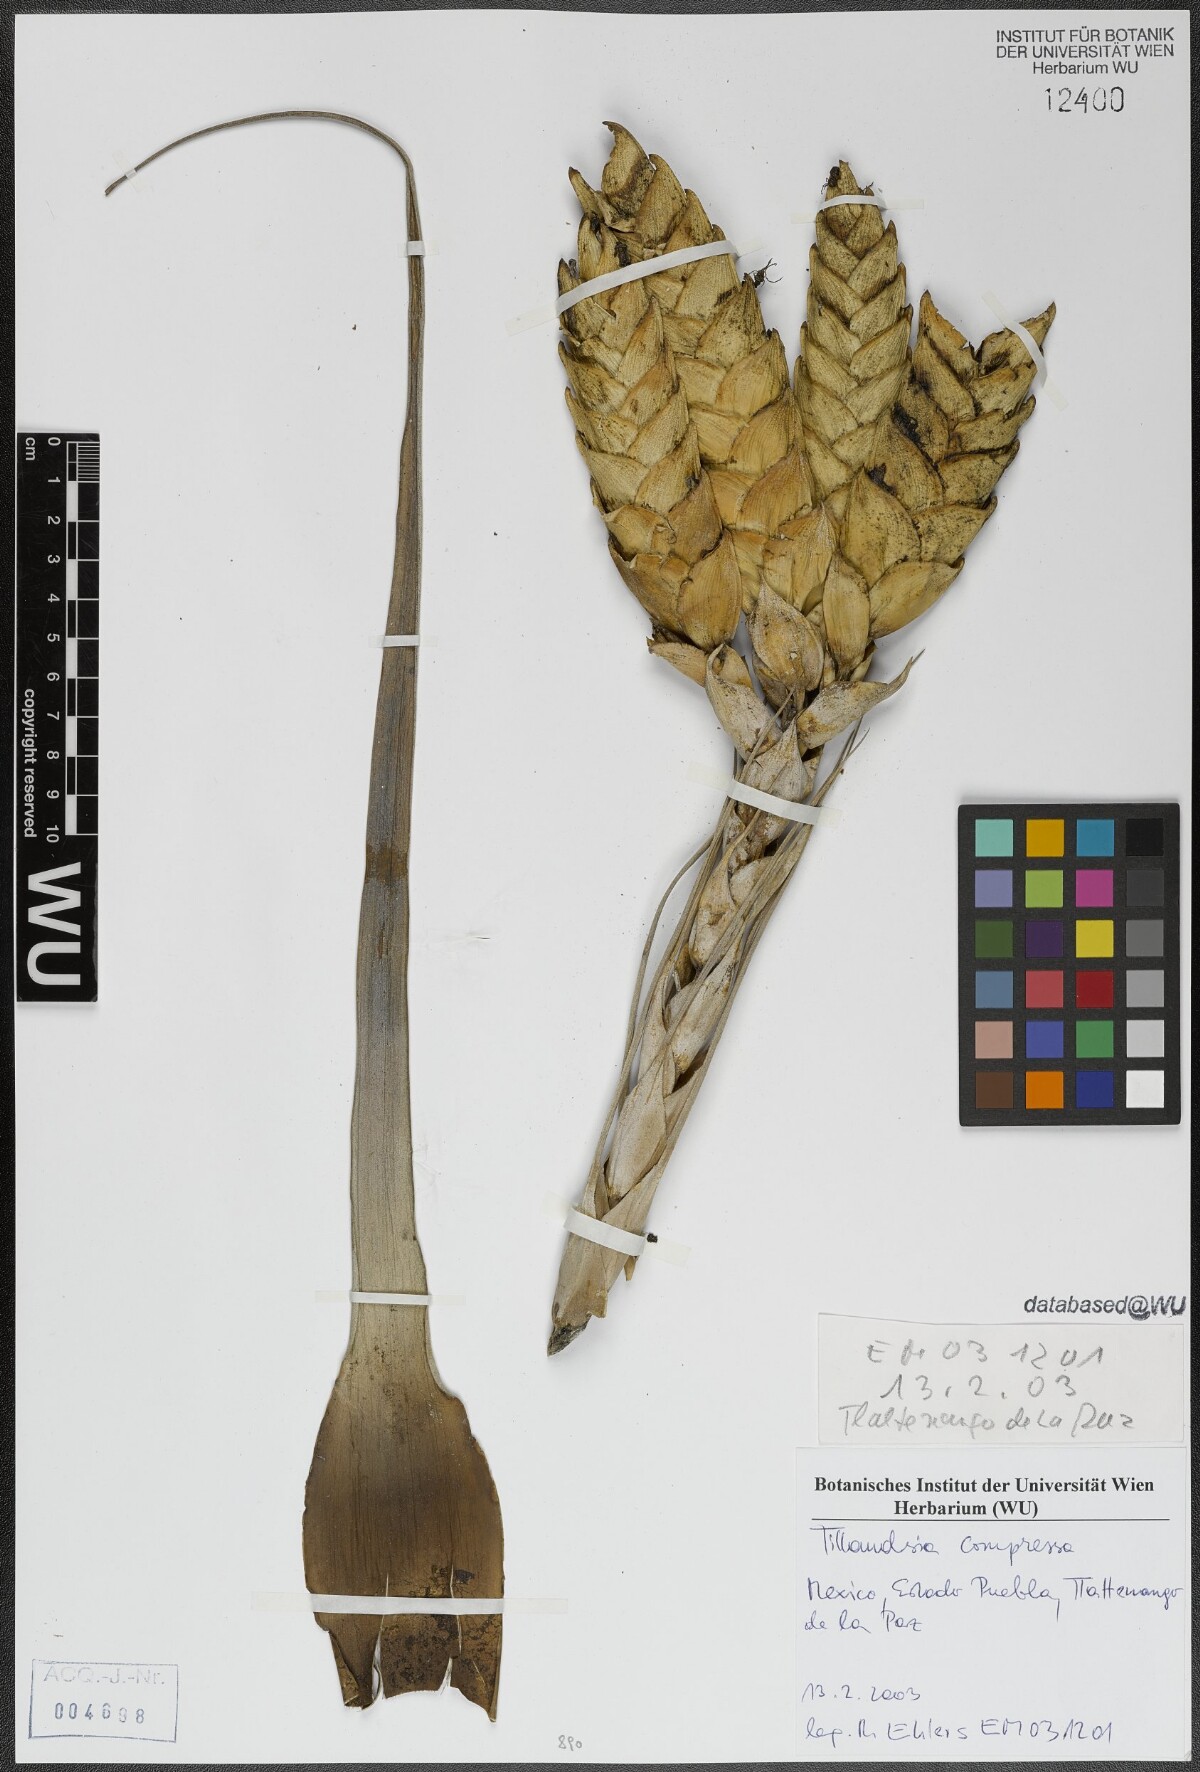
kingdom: Plantae
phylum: Tracheophyta
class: Liliopsida
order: Poales
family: Bromeliaceae
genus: Tillandsia
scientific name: Tillandsia compressa
